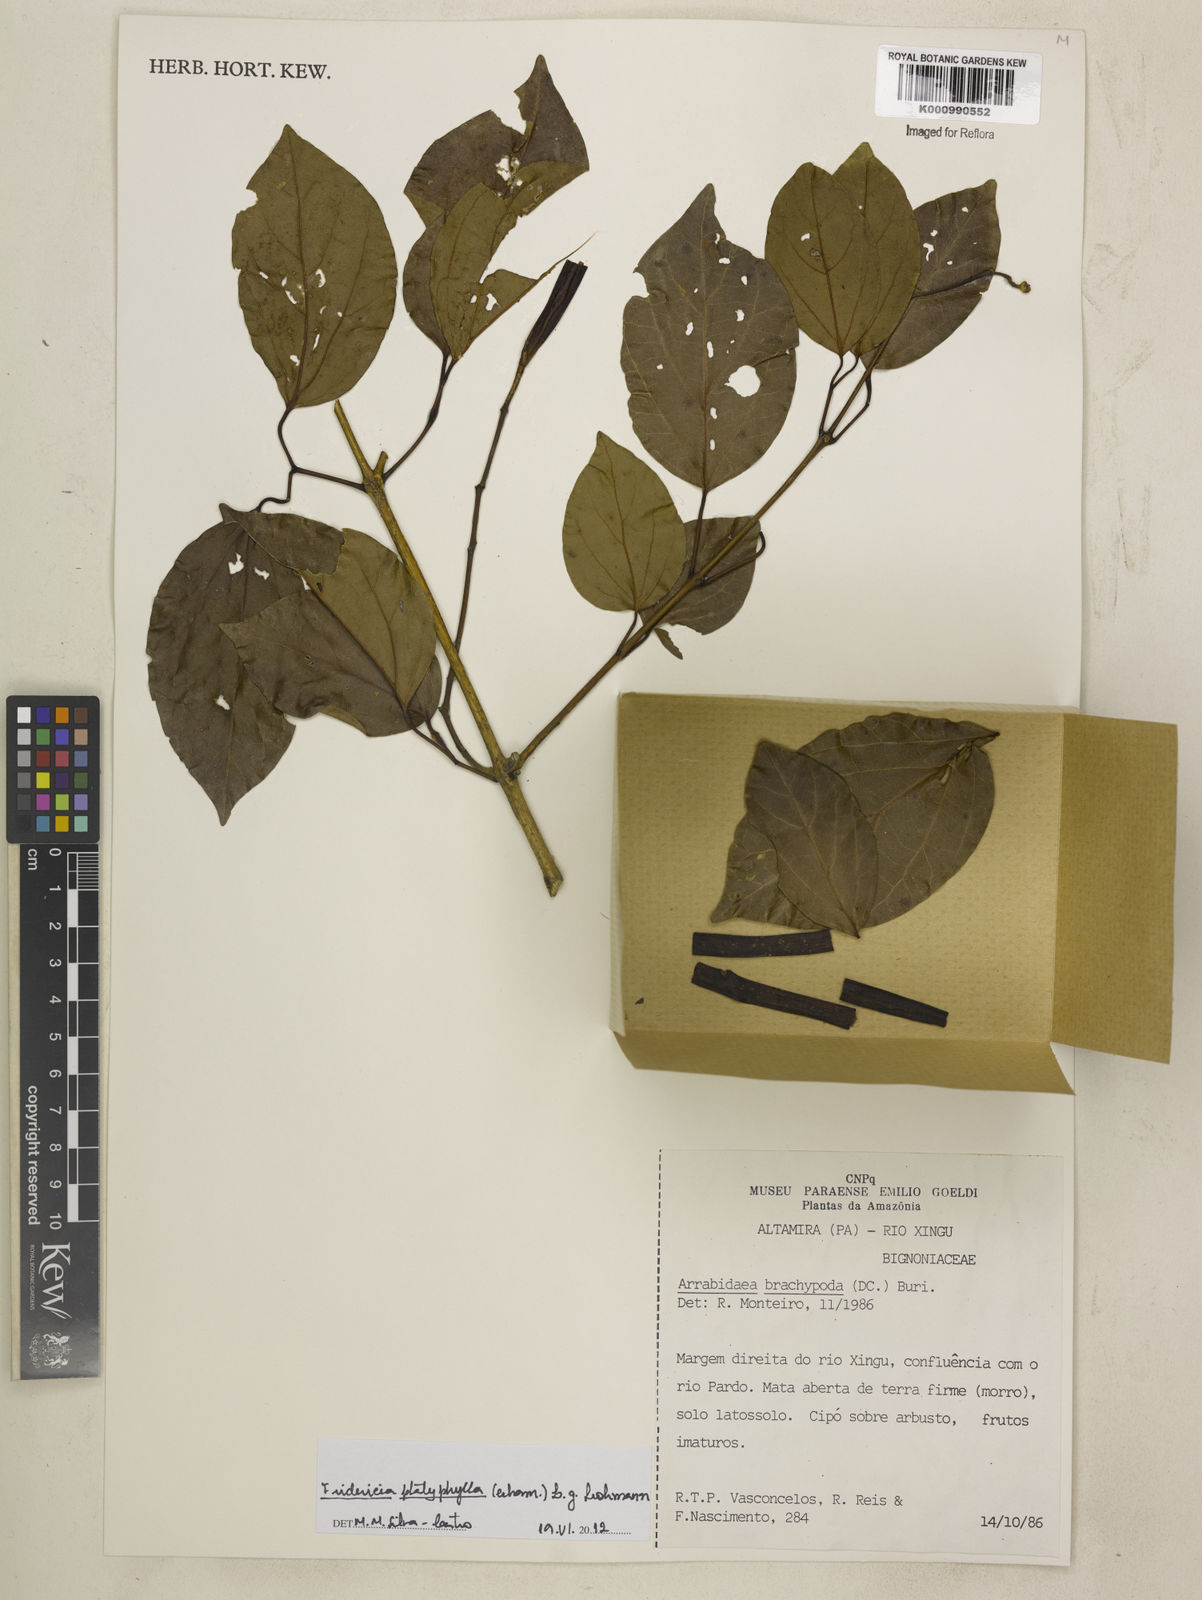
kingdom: Plantae
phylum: Tracheophyta
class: Magnoliopsida
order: Lamiales
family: Bignoniaceae
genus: Fridericia
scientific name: Fridericia platyphylla
